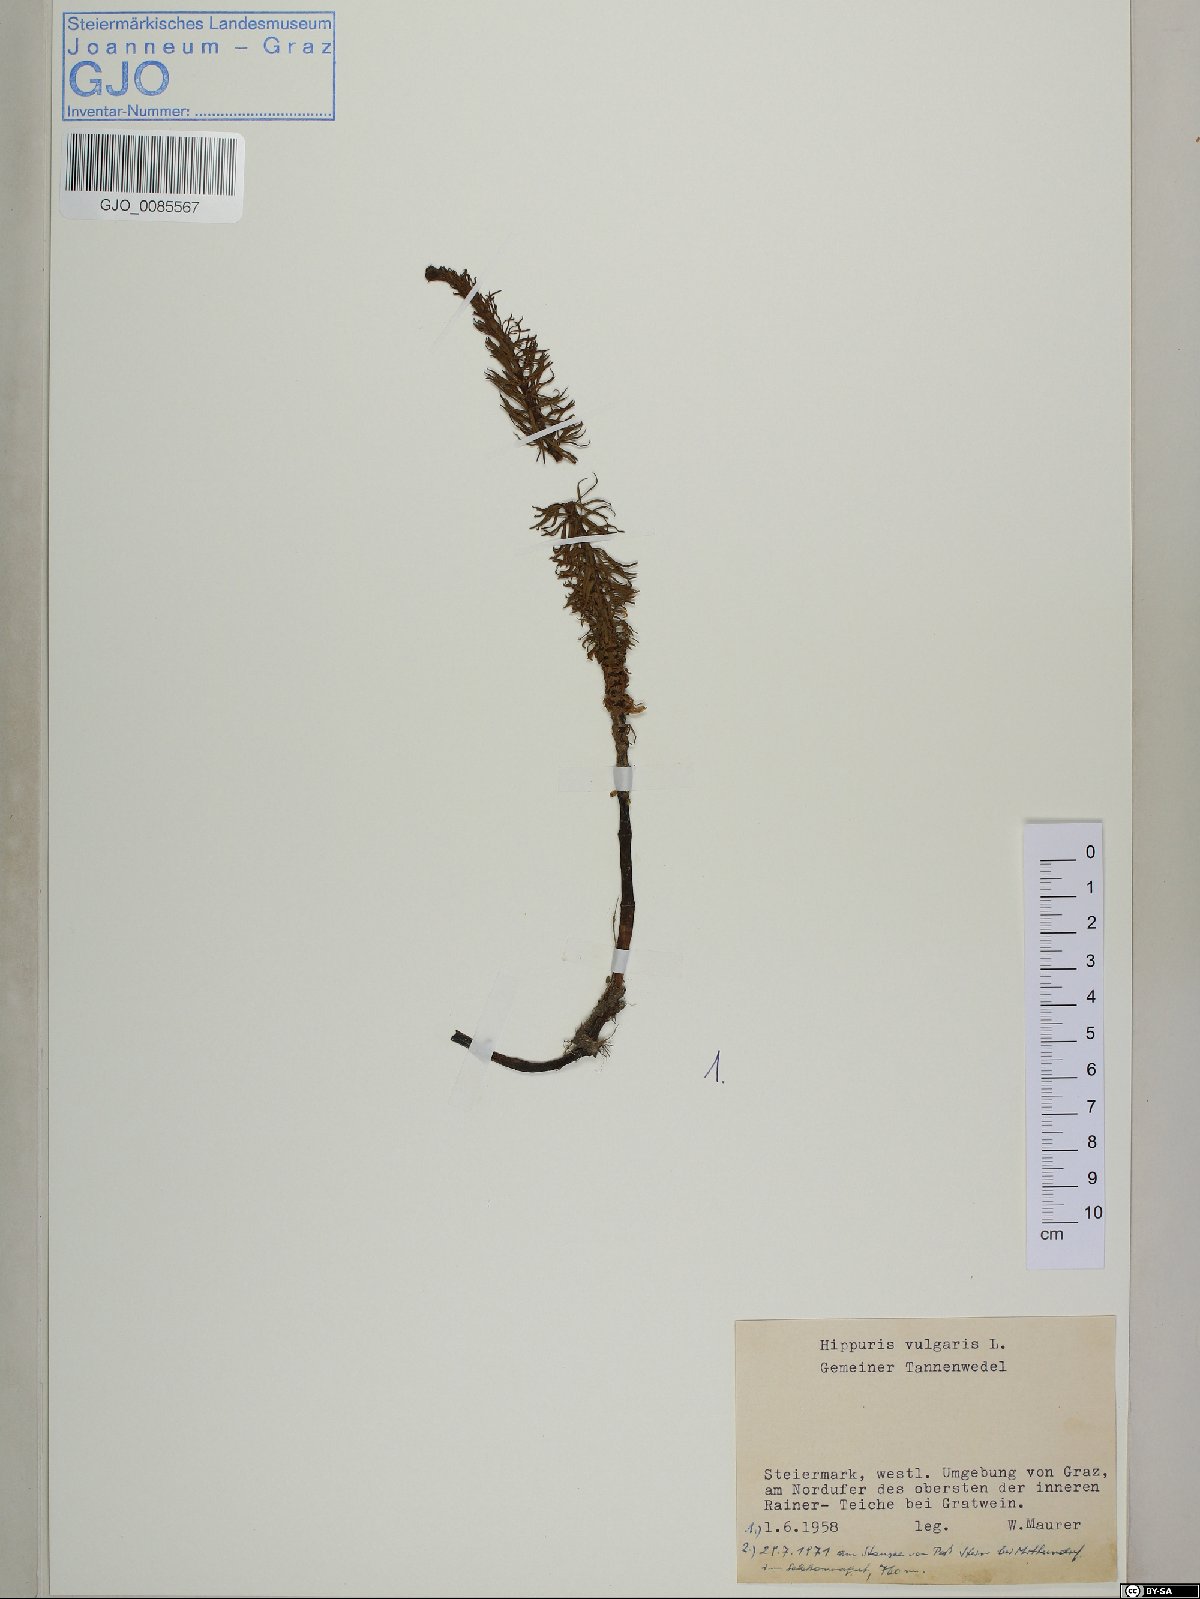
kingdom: Plantae
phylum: Tracheophyta
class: Magnoliopsida
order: Lamiales
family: Plantaginaceae
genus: Hippuris
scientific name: Hippuris vulgaris
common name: Mare's-tail
